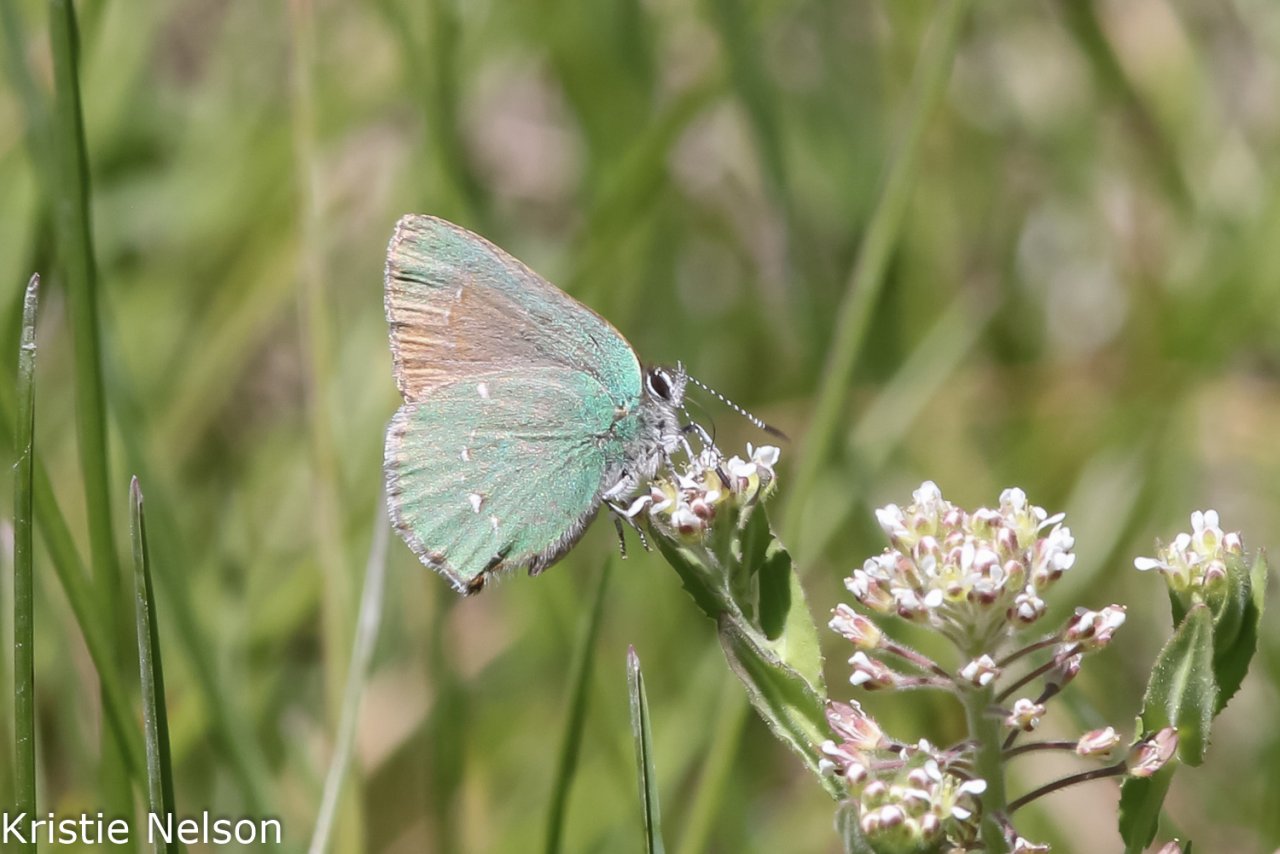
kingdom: Animalia
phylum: Arthropoda
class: Insecta
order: Lepidoptera
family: Lycaenidae
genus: Callophrys
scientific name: Callophrys dumetorum
